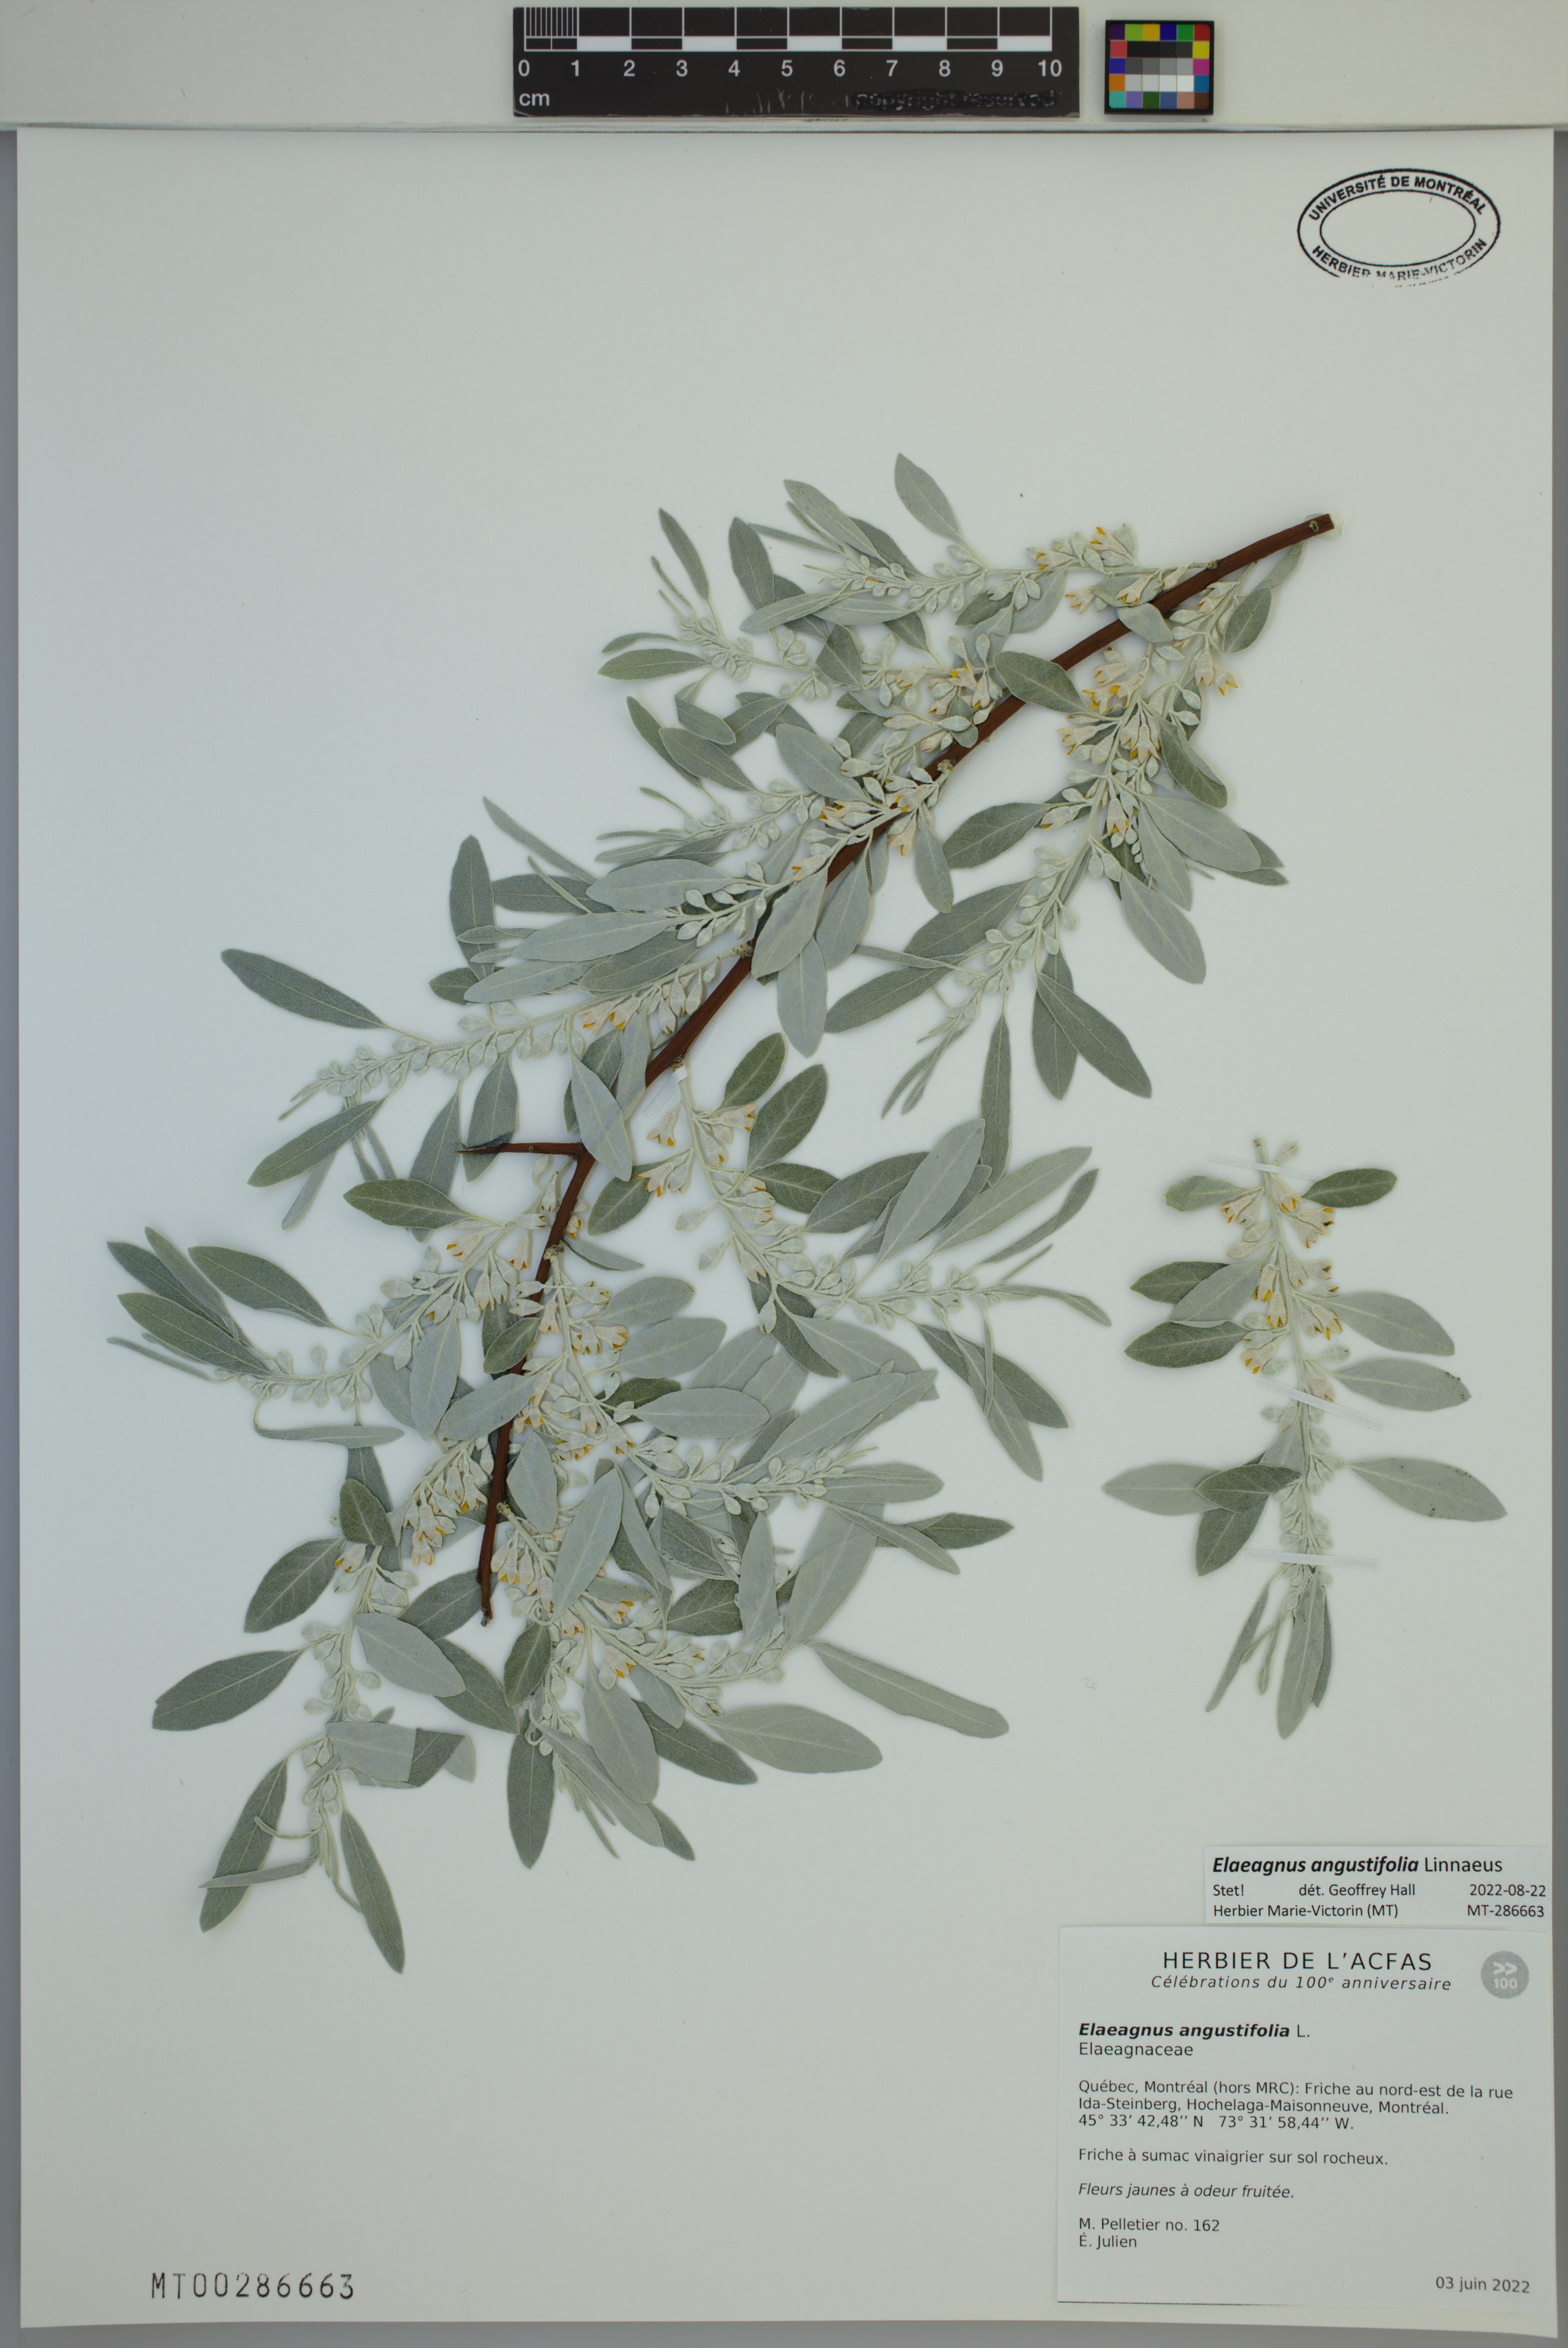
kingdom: Plantae
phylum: Tracheophyta
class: Magnoliopsida
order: Rosales
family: Elaeagnaceae
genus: Elaeagnus
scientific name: Elaeagnus angustifolia
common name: Russian olive
